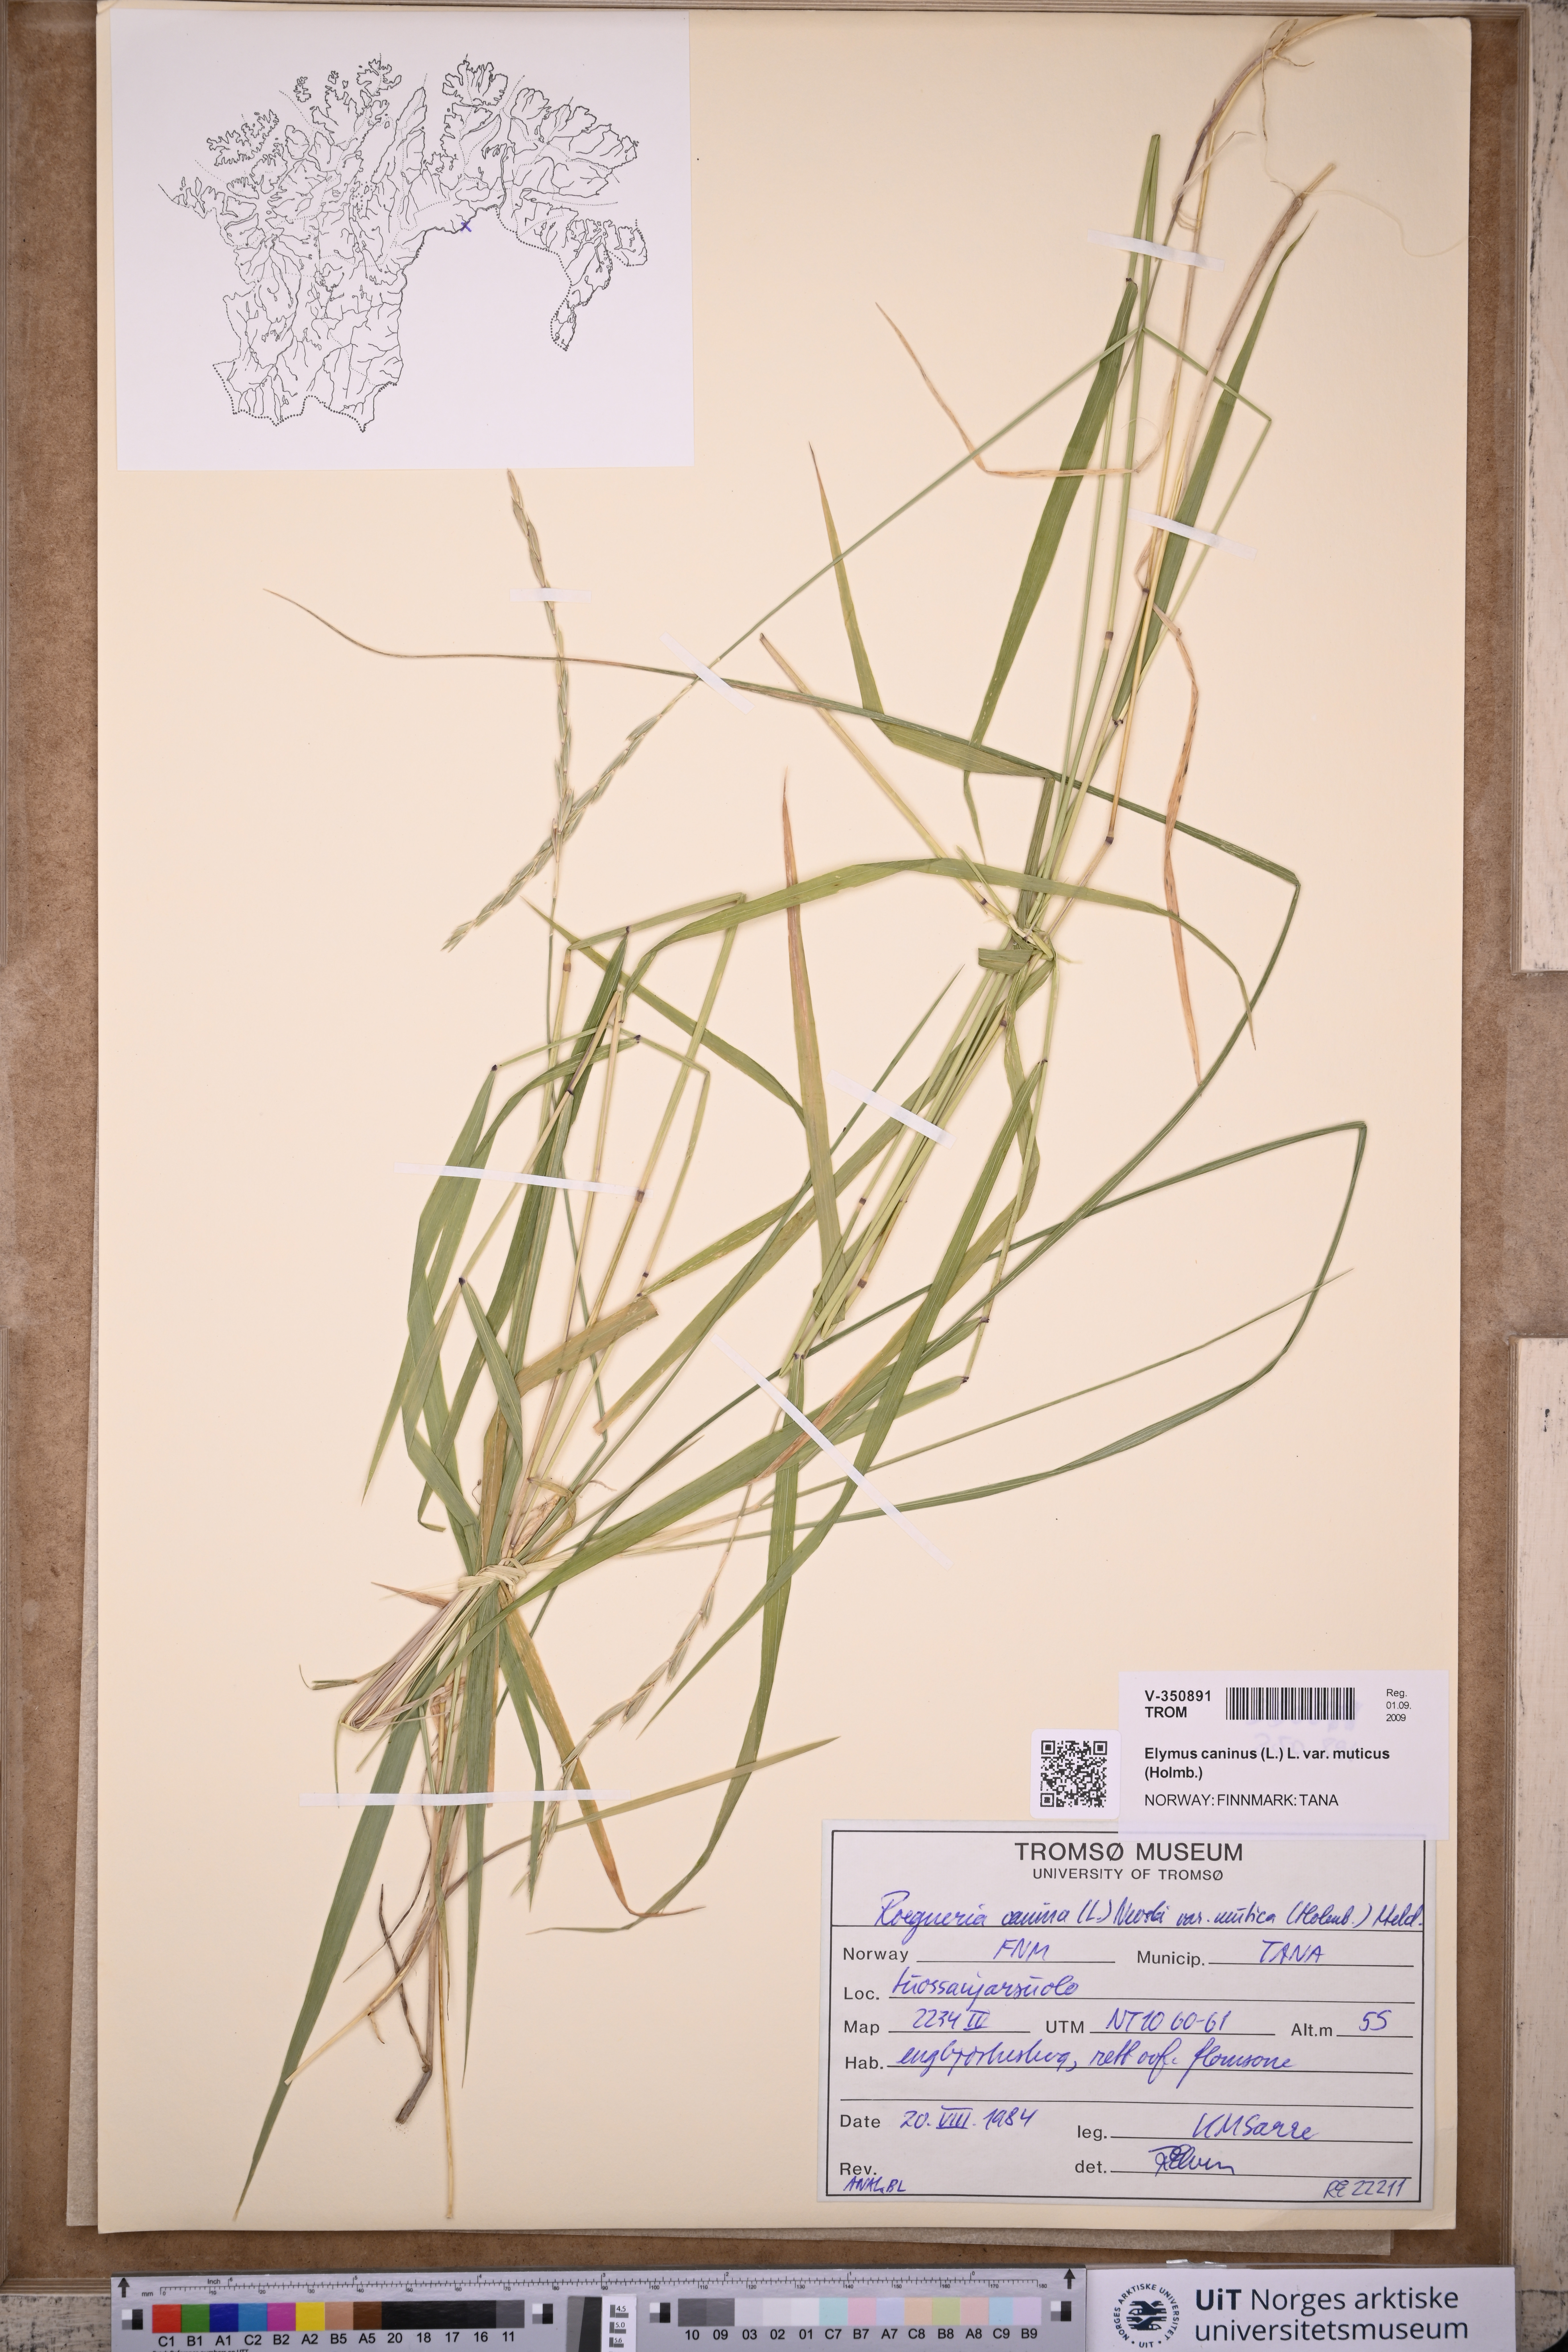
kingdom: Plantae
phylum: Tracheophyta
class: Liliopsida
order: Poales
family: Poaceae
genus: Elymus
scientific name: Elymus caninus
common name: Bearded couch
